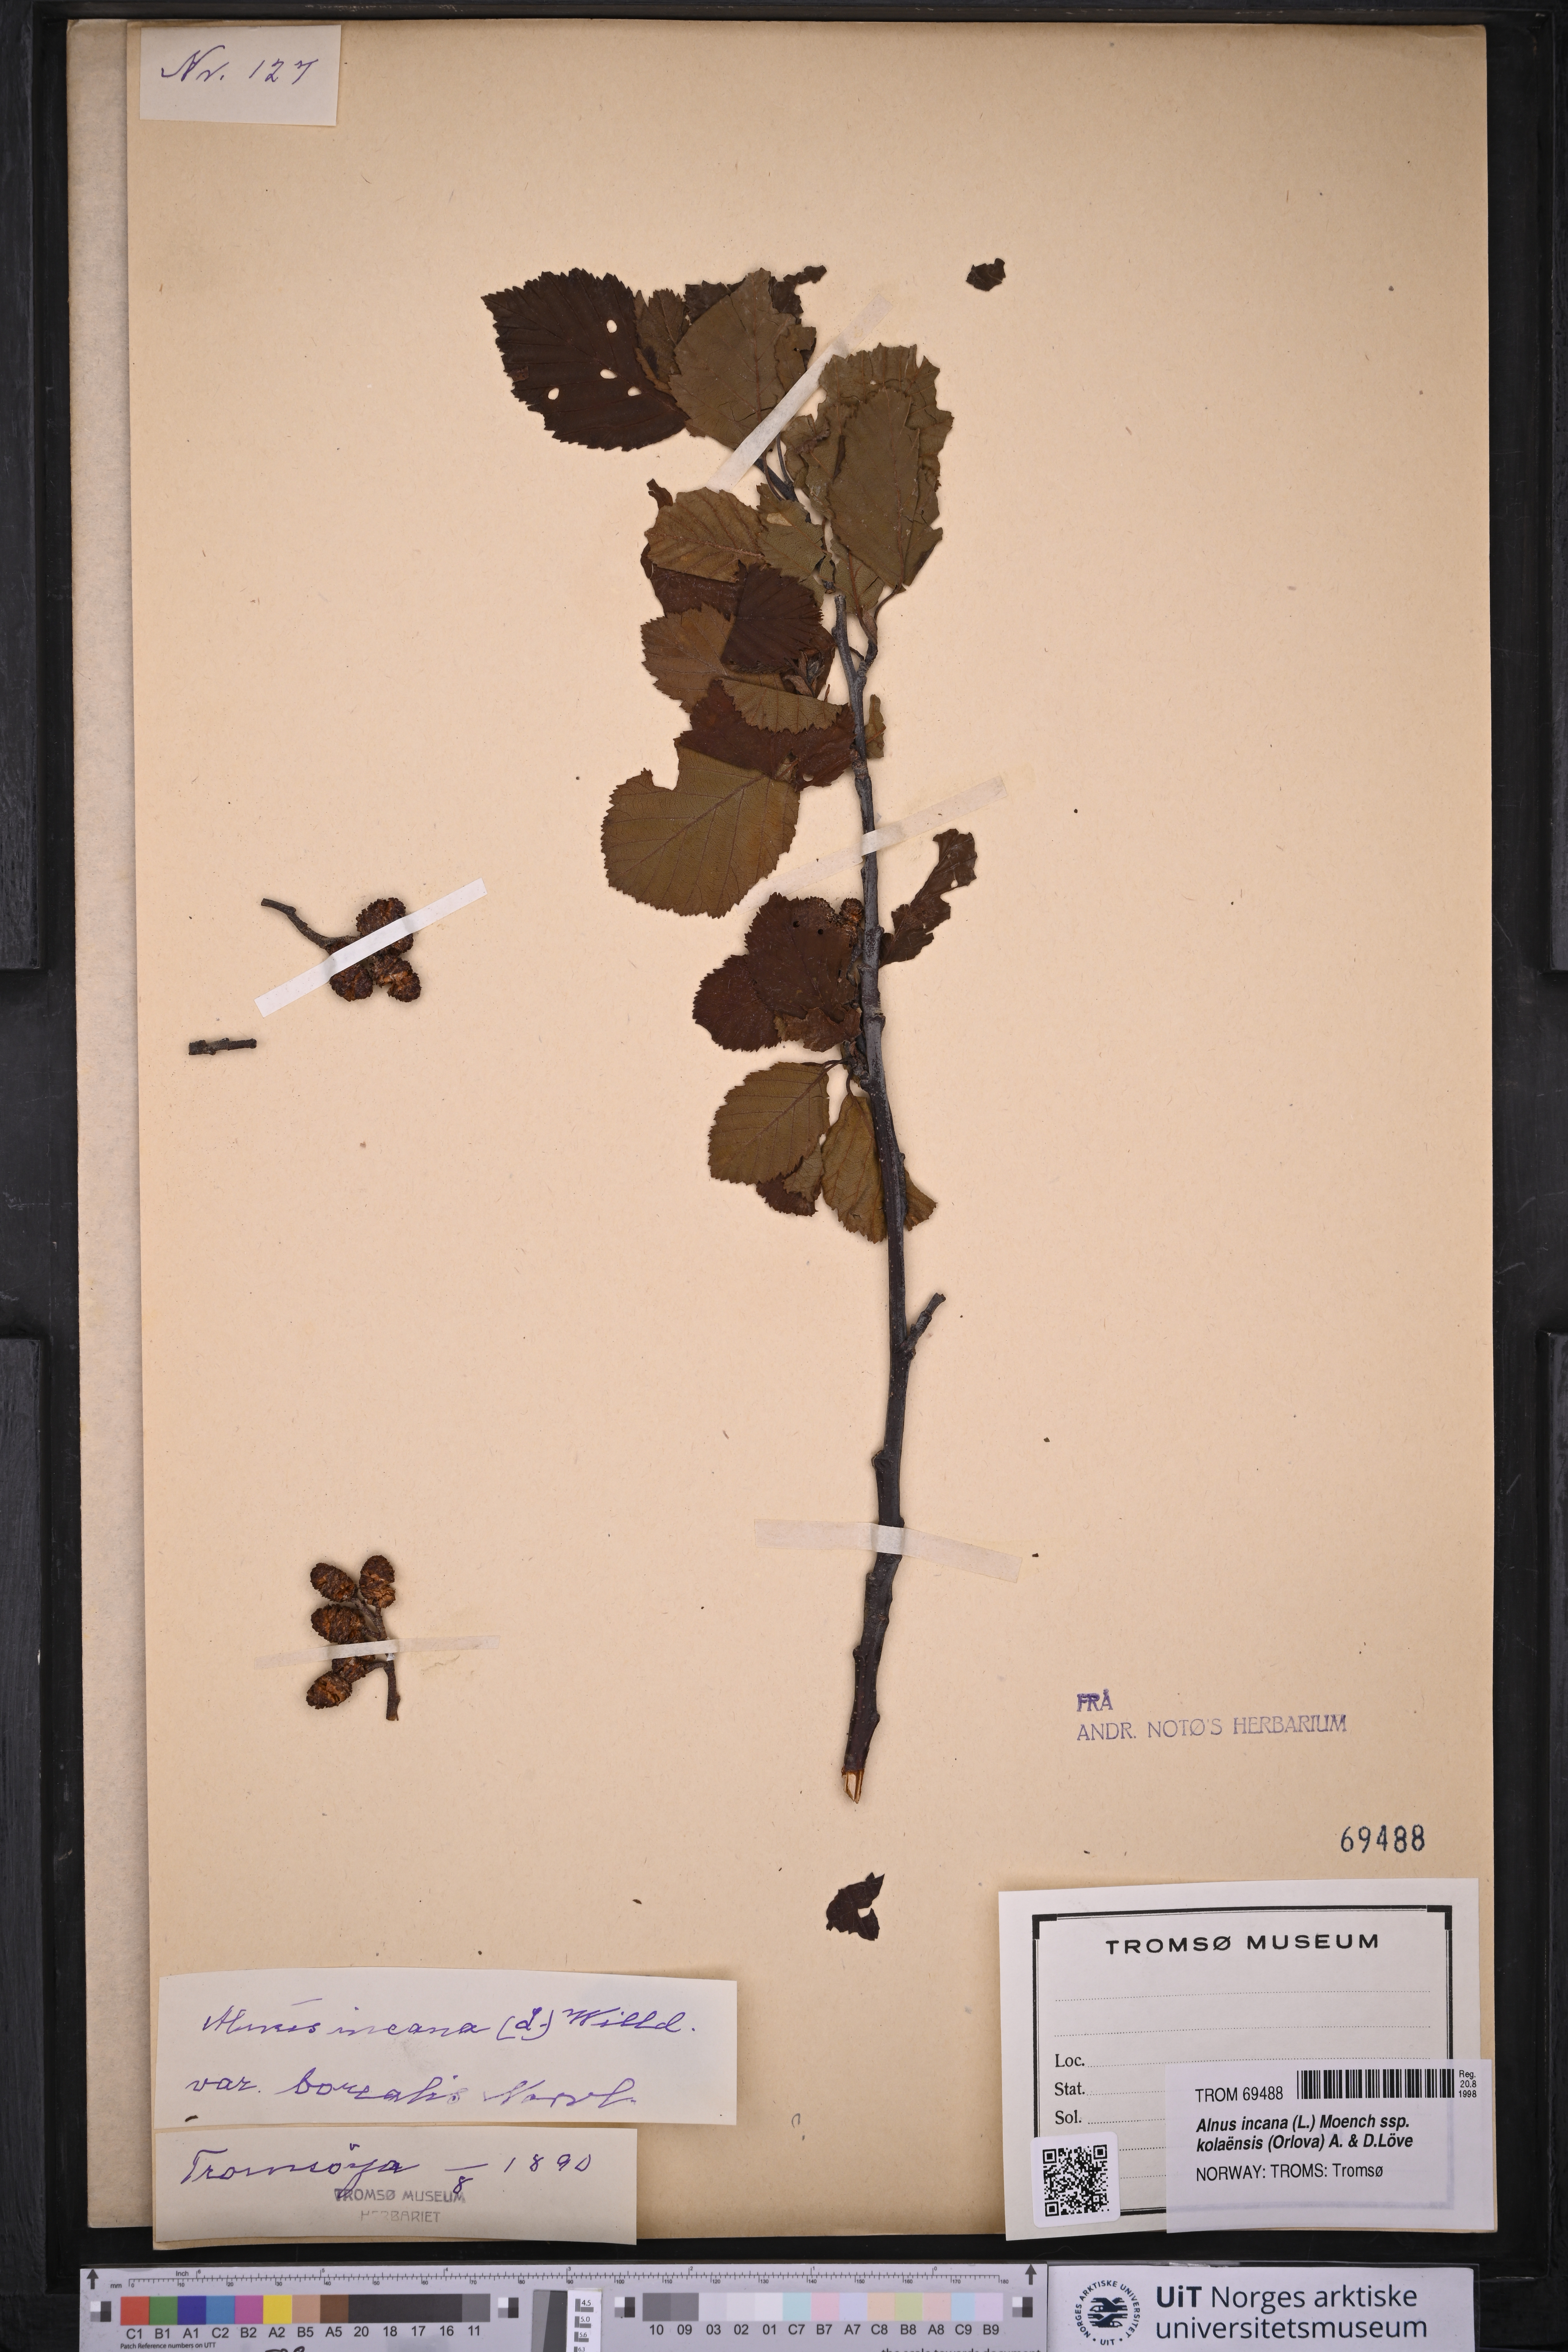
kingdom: Plantae
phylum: Tracheophyta
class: Magnoliopsida
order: Fagales
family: Betulaceae
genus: Alnus
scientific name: Alnus incana
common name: Grey alder
